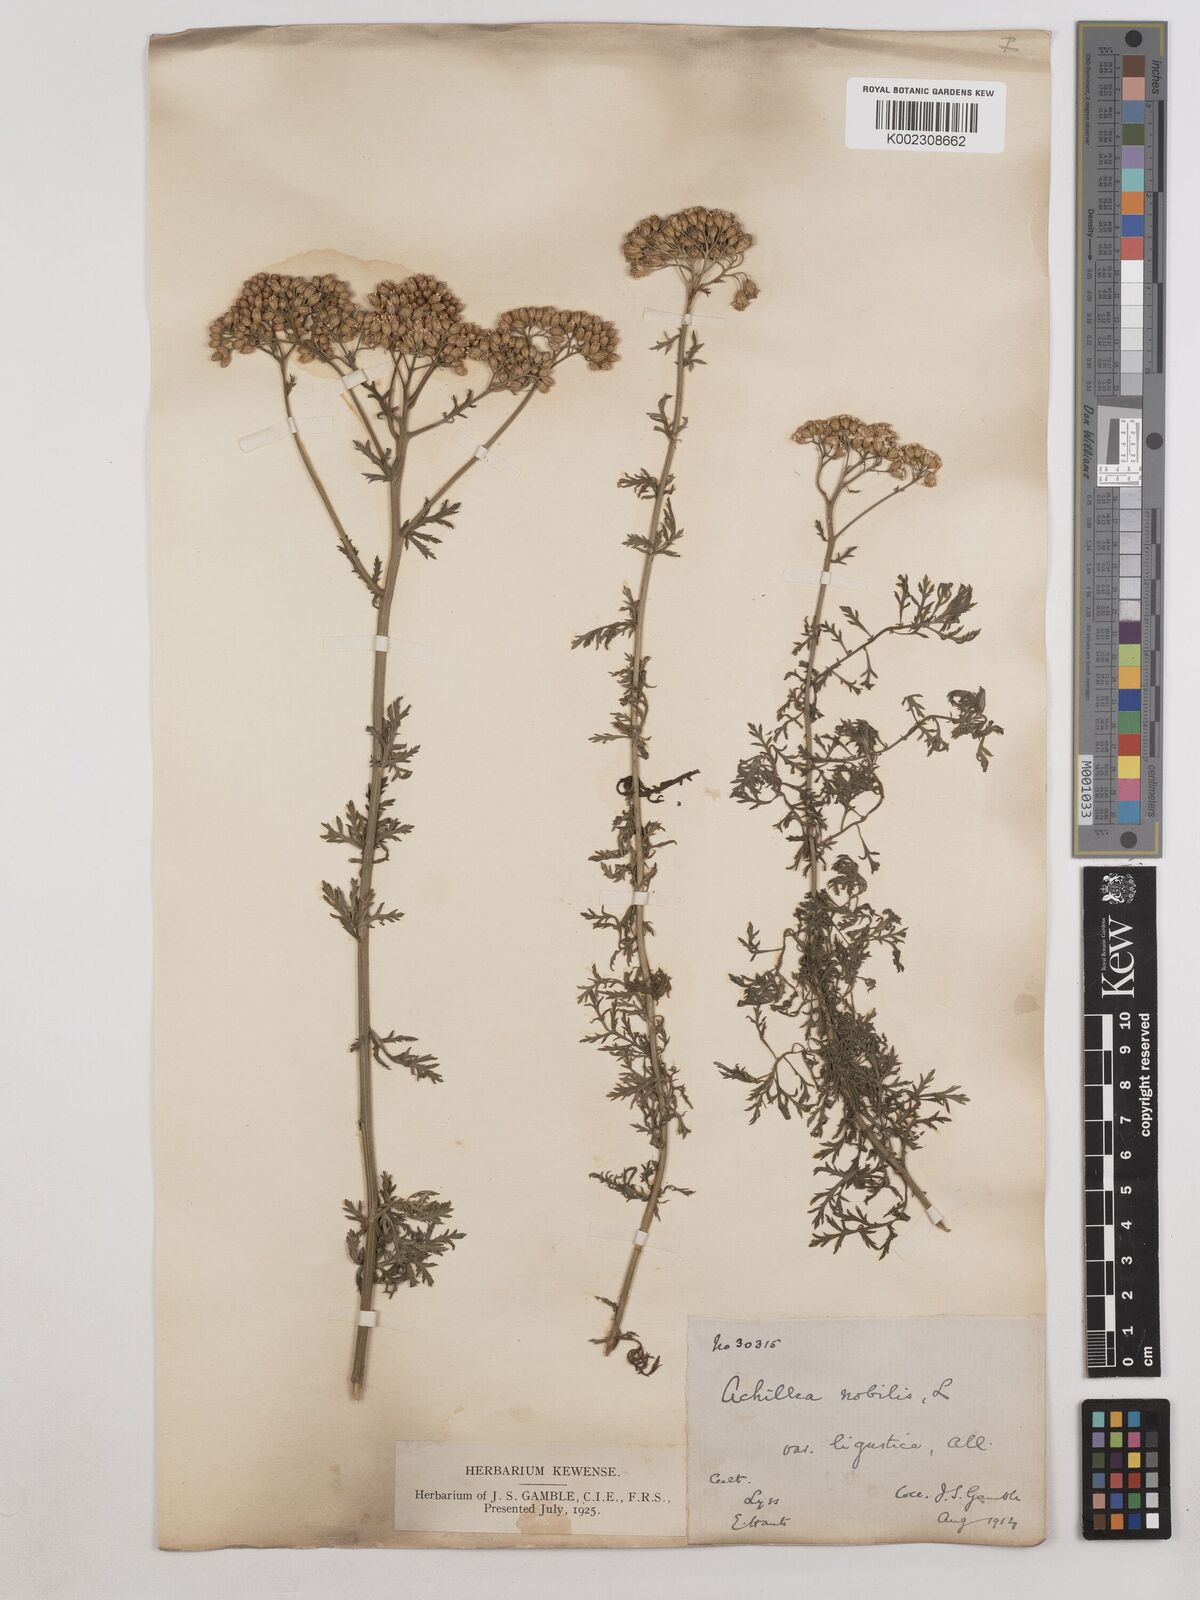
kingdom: Plantae
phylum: Tracheophyta
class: Magnoliopsida
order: Asterales
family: Asteraceae
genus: Achillea
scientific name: Achillea ligustica
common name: Southern yarrow
